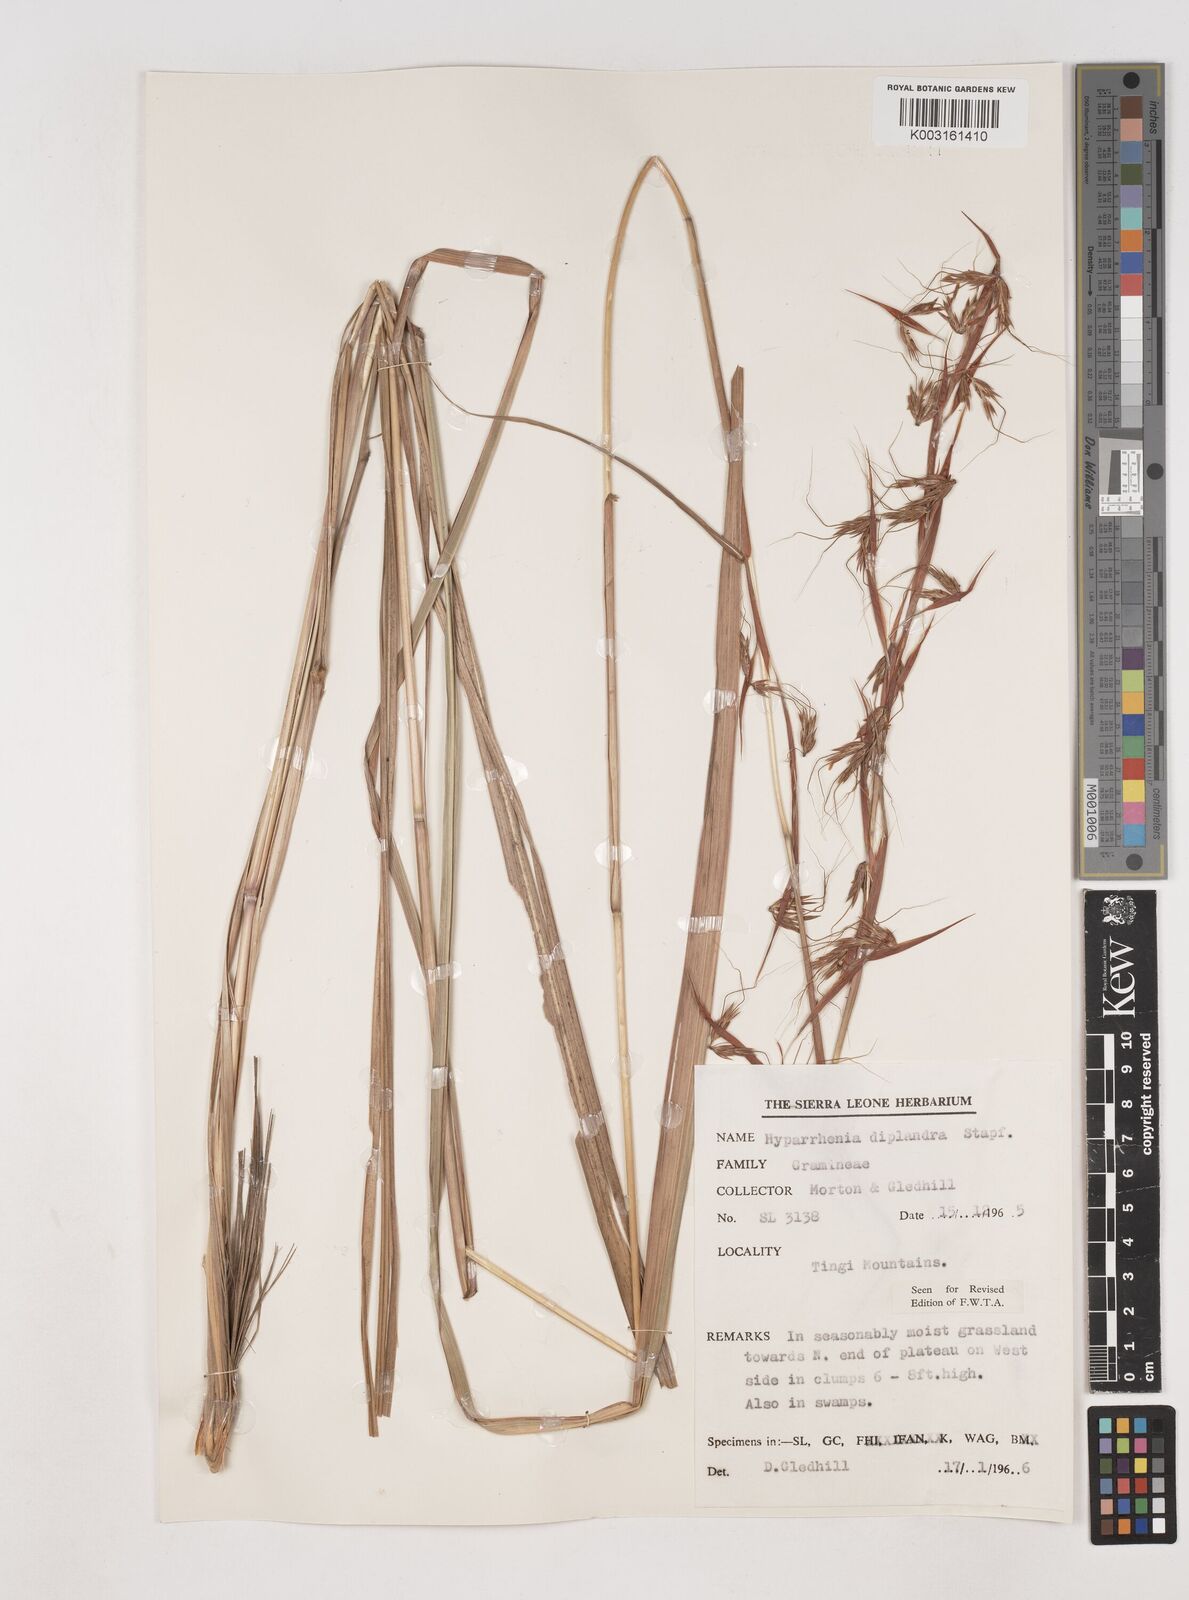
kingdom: Plantae
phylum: Tracheophyta
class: Liliopsida
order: Poales
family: Poaceae
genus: Hyparrhenia
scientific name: Hyparrhenia diplandra
